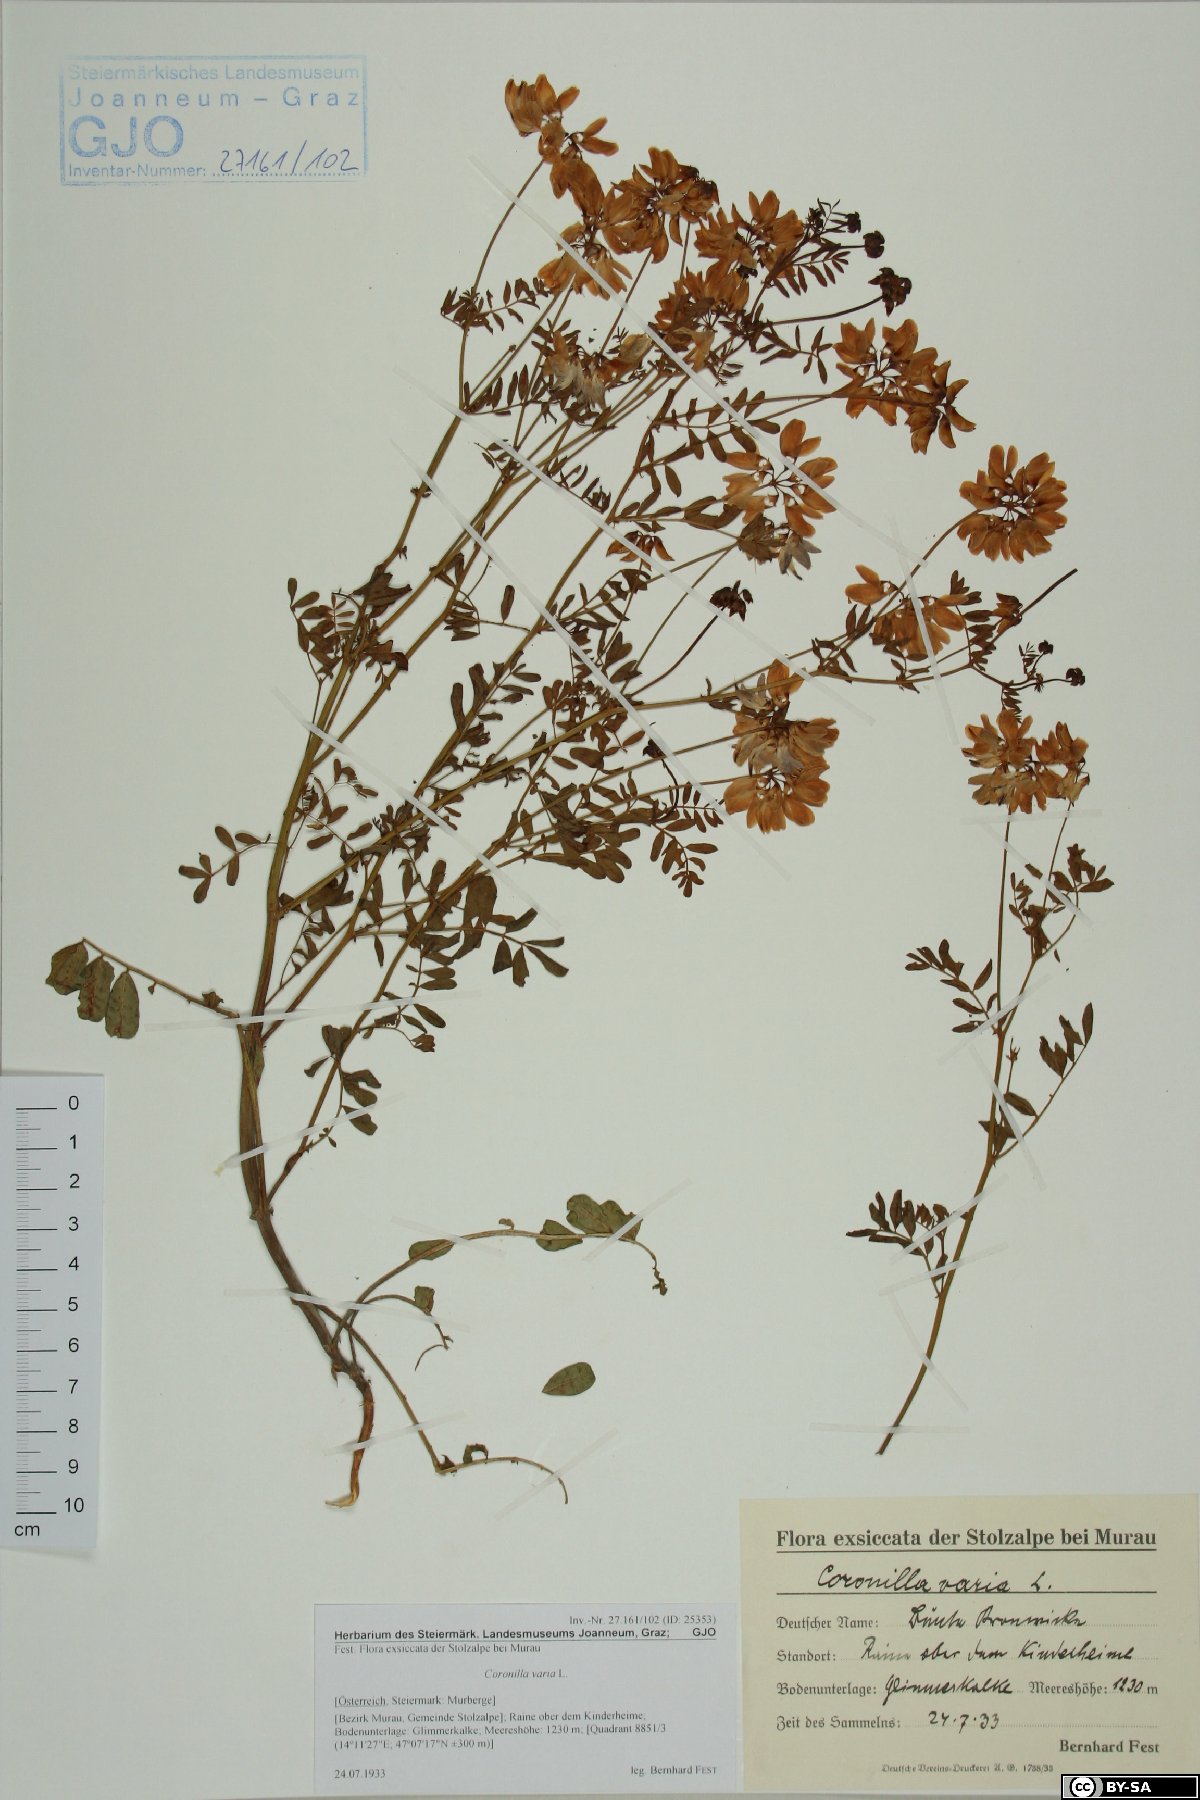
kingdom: Plantae
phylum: Tracheophyta
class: Magnoliopsida
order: Fabales
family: Fabaceae
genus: Coronilla
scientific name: Coronilla varia
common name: Crownvetch
